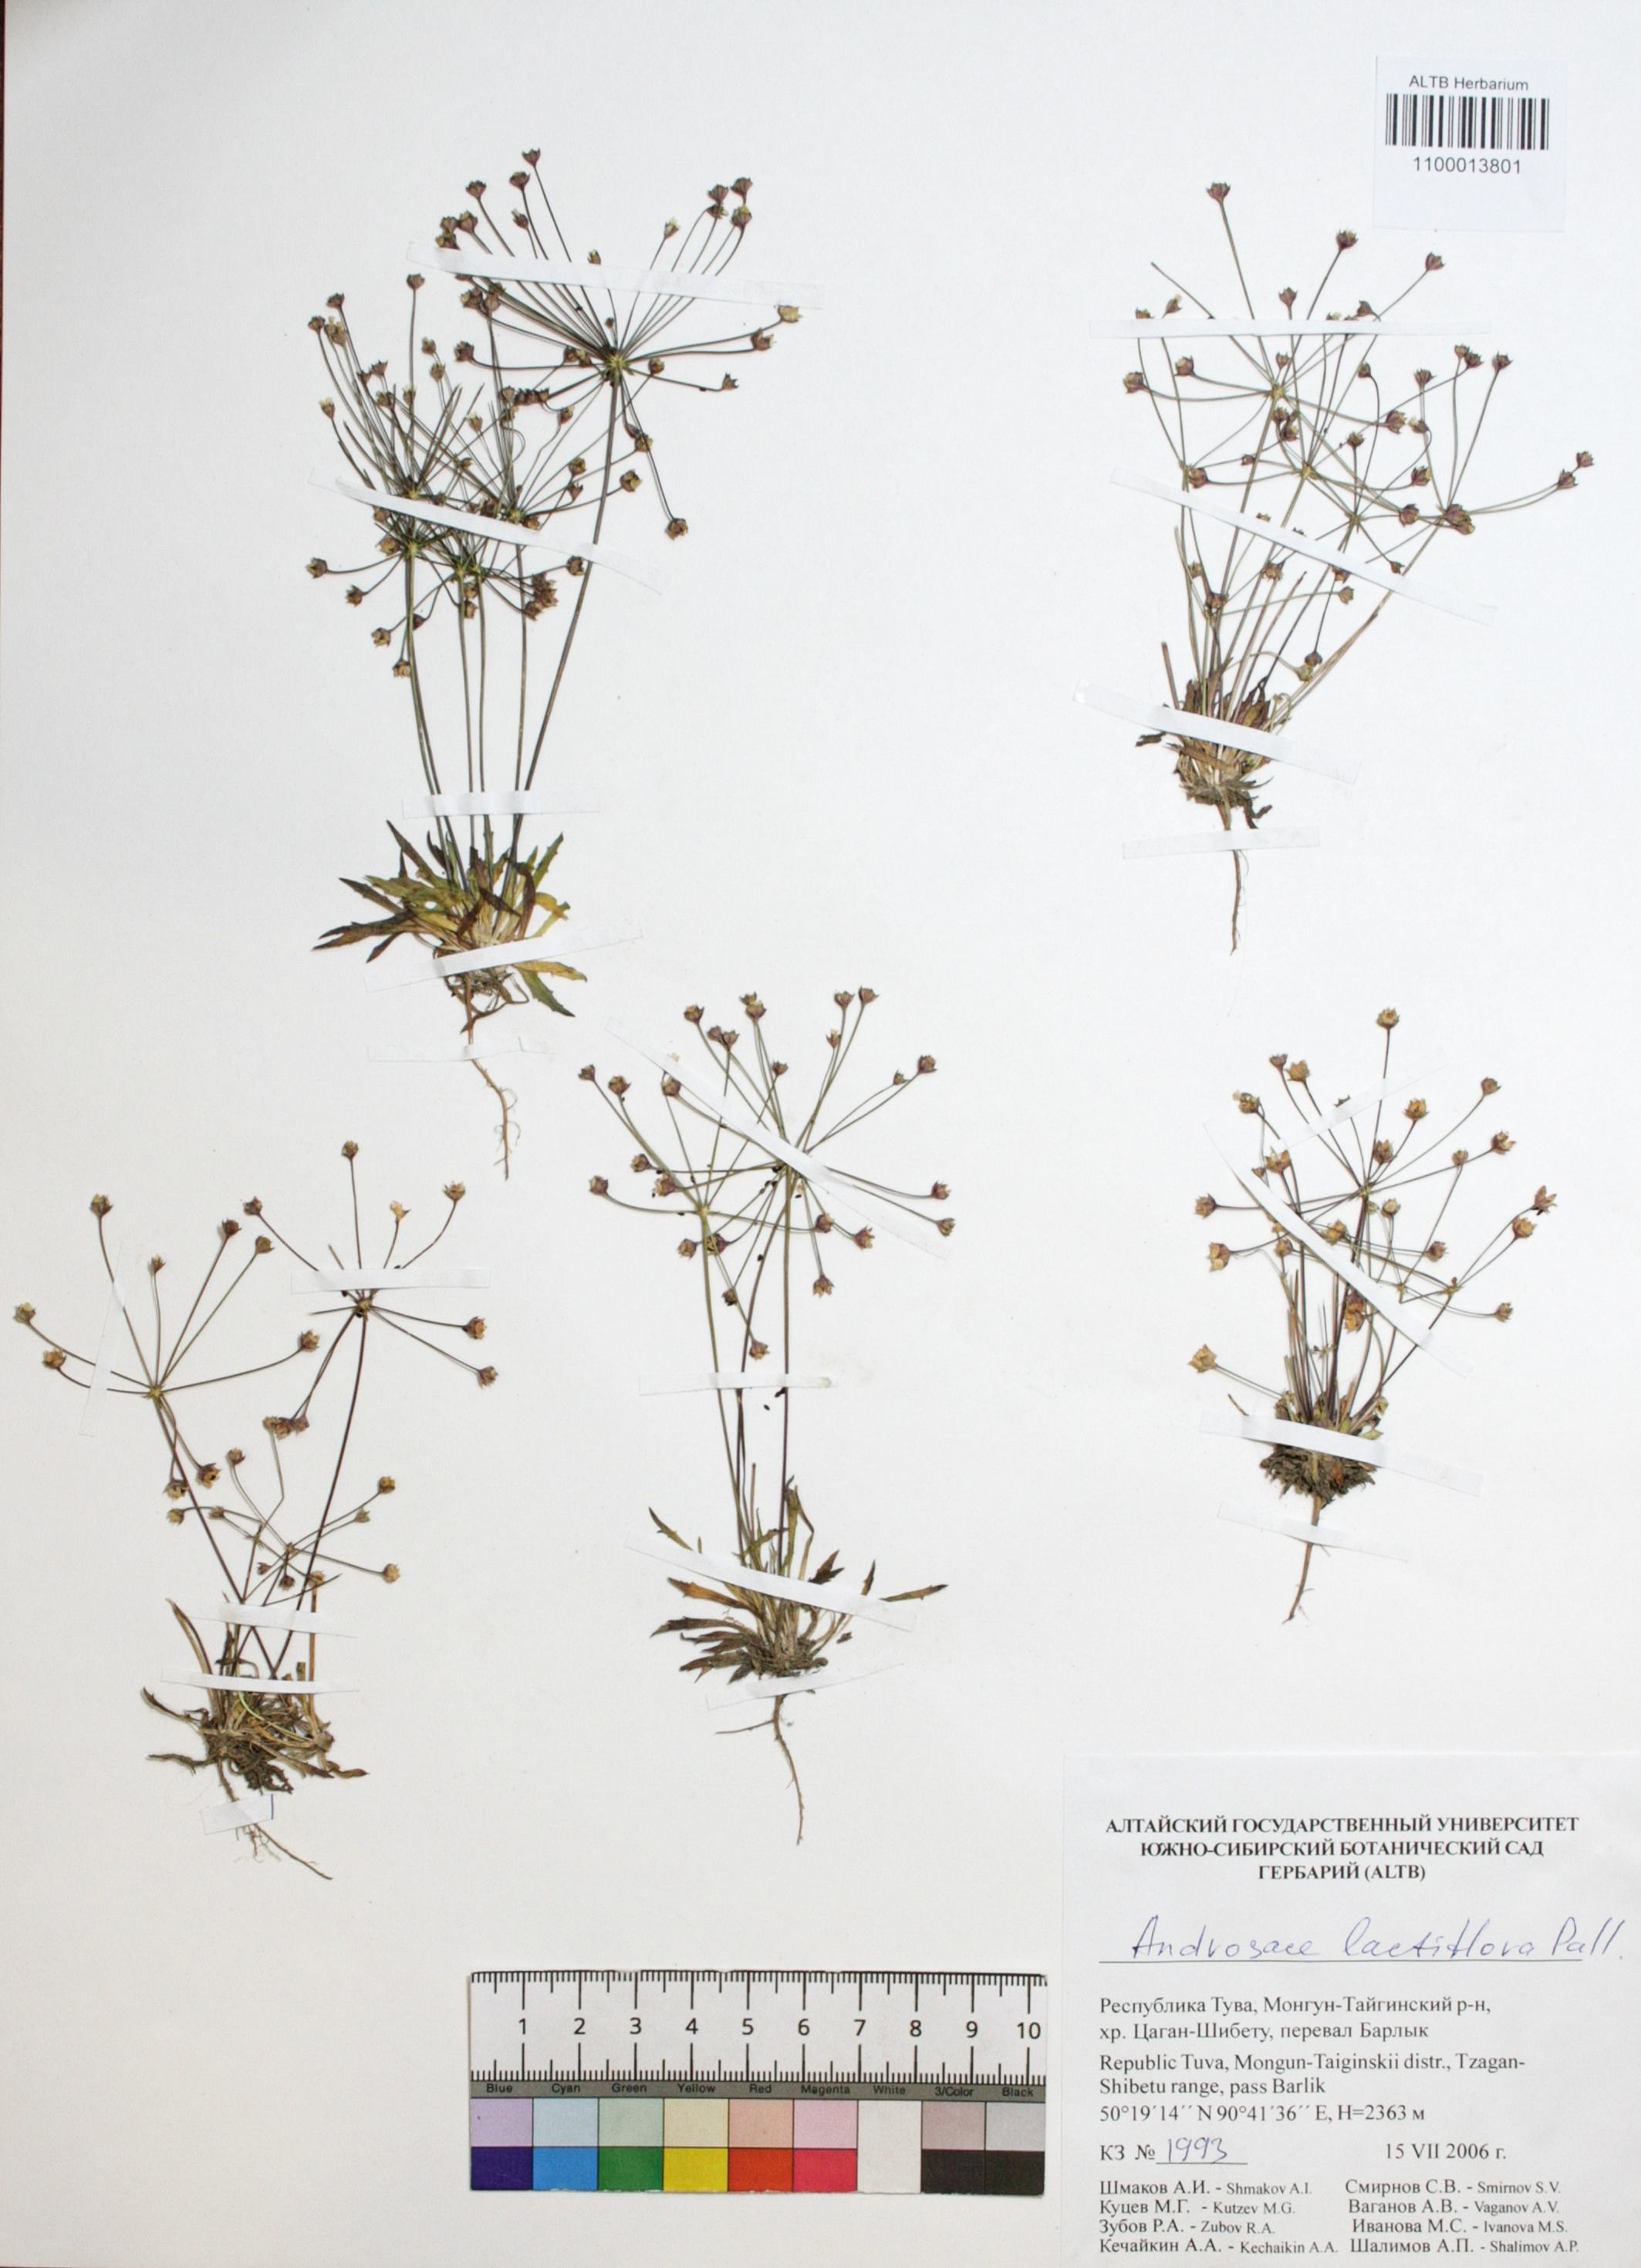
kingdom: Plantae
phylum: Tracheophyta
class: Magnoliopsida
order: Ericales
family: Primulaceae
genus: Androsace
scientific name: Androsace lactiflora
